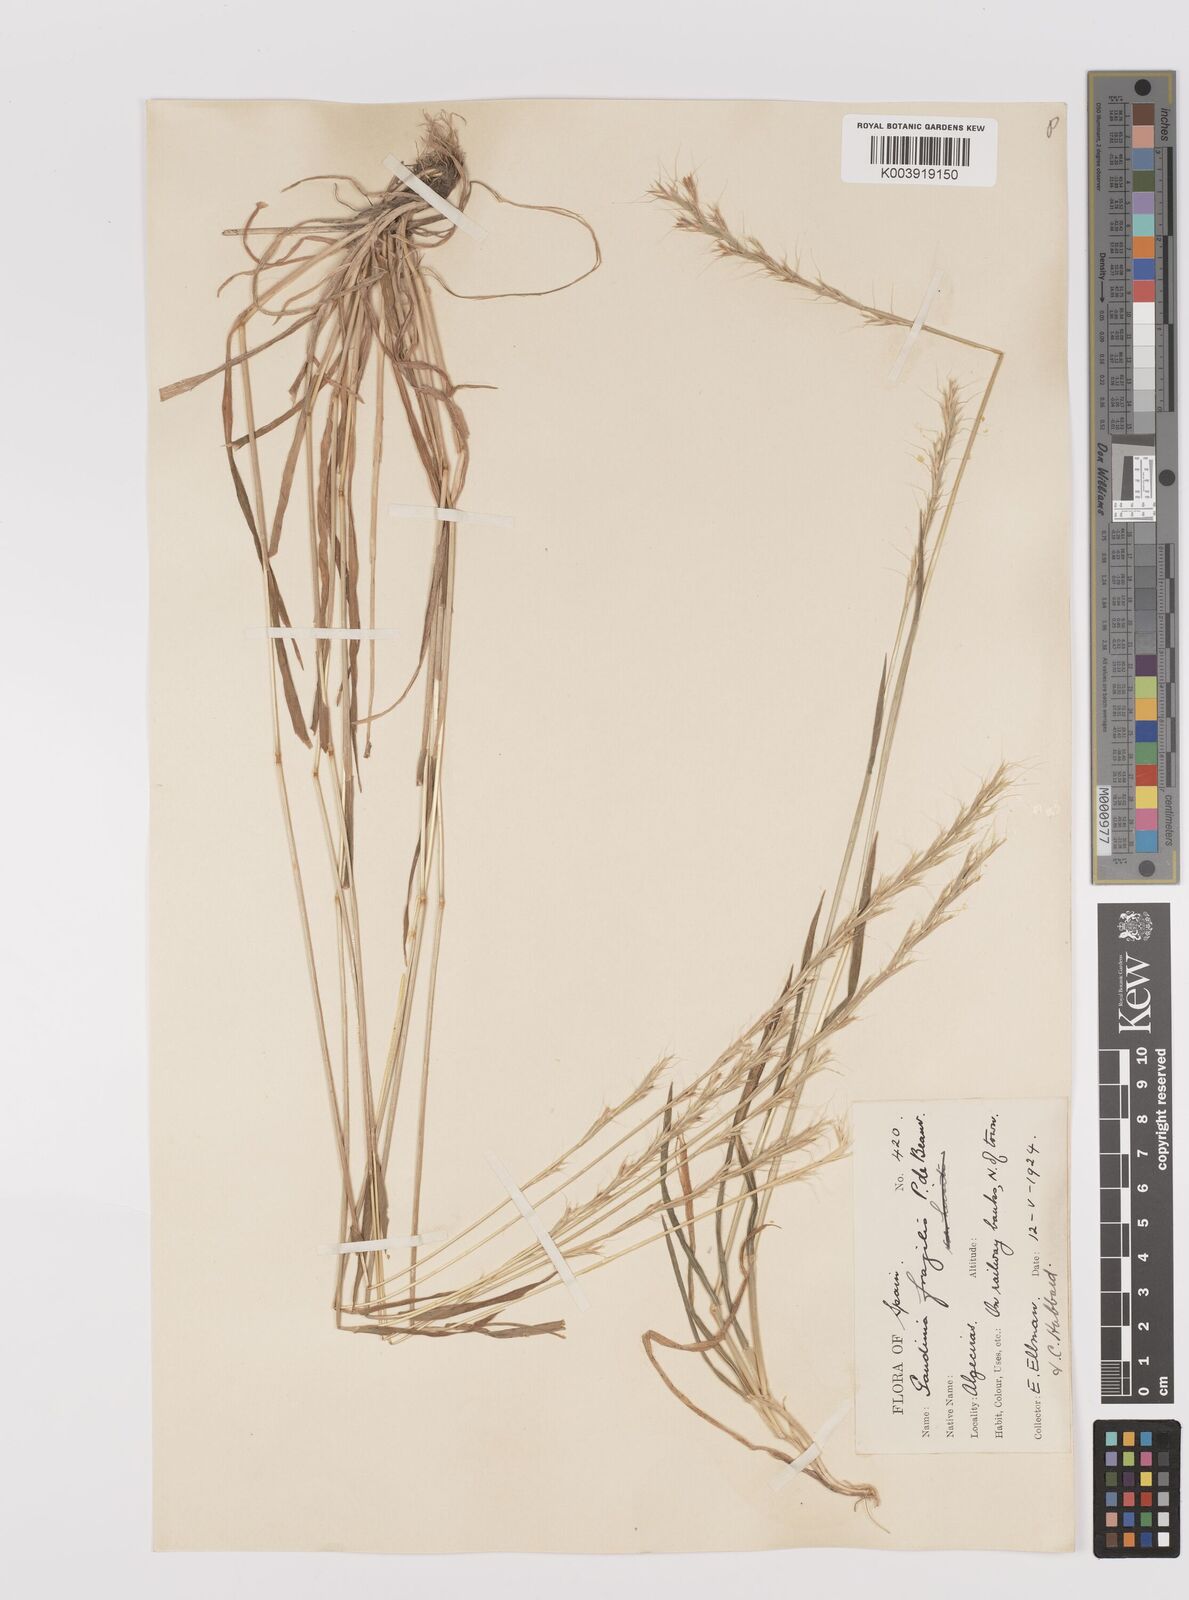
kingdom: Plantae
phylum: Tracheophyta
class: Liliopsida
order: Poales
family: Poaceae
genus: Gaudinia
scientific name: Gaudinia fragilis
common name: French oat-grass
